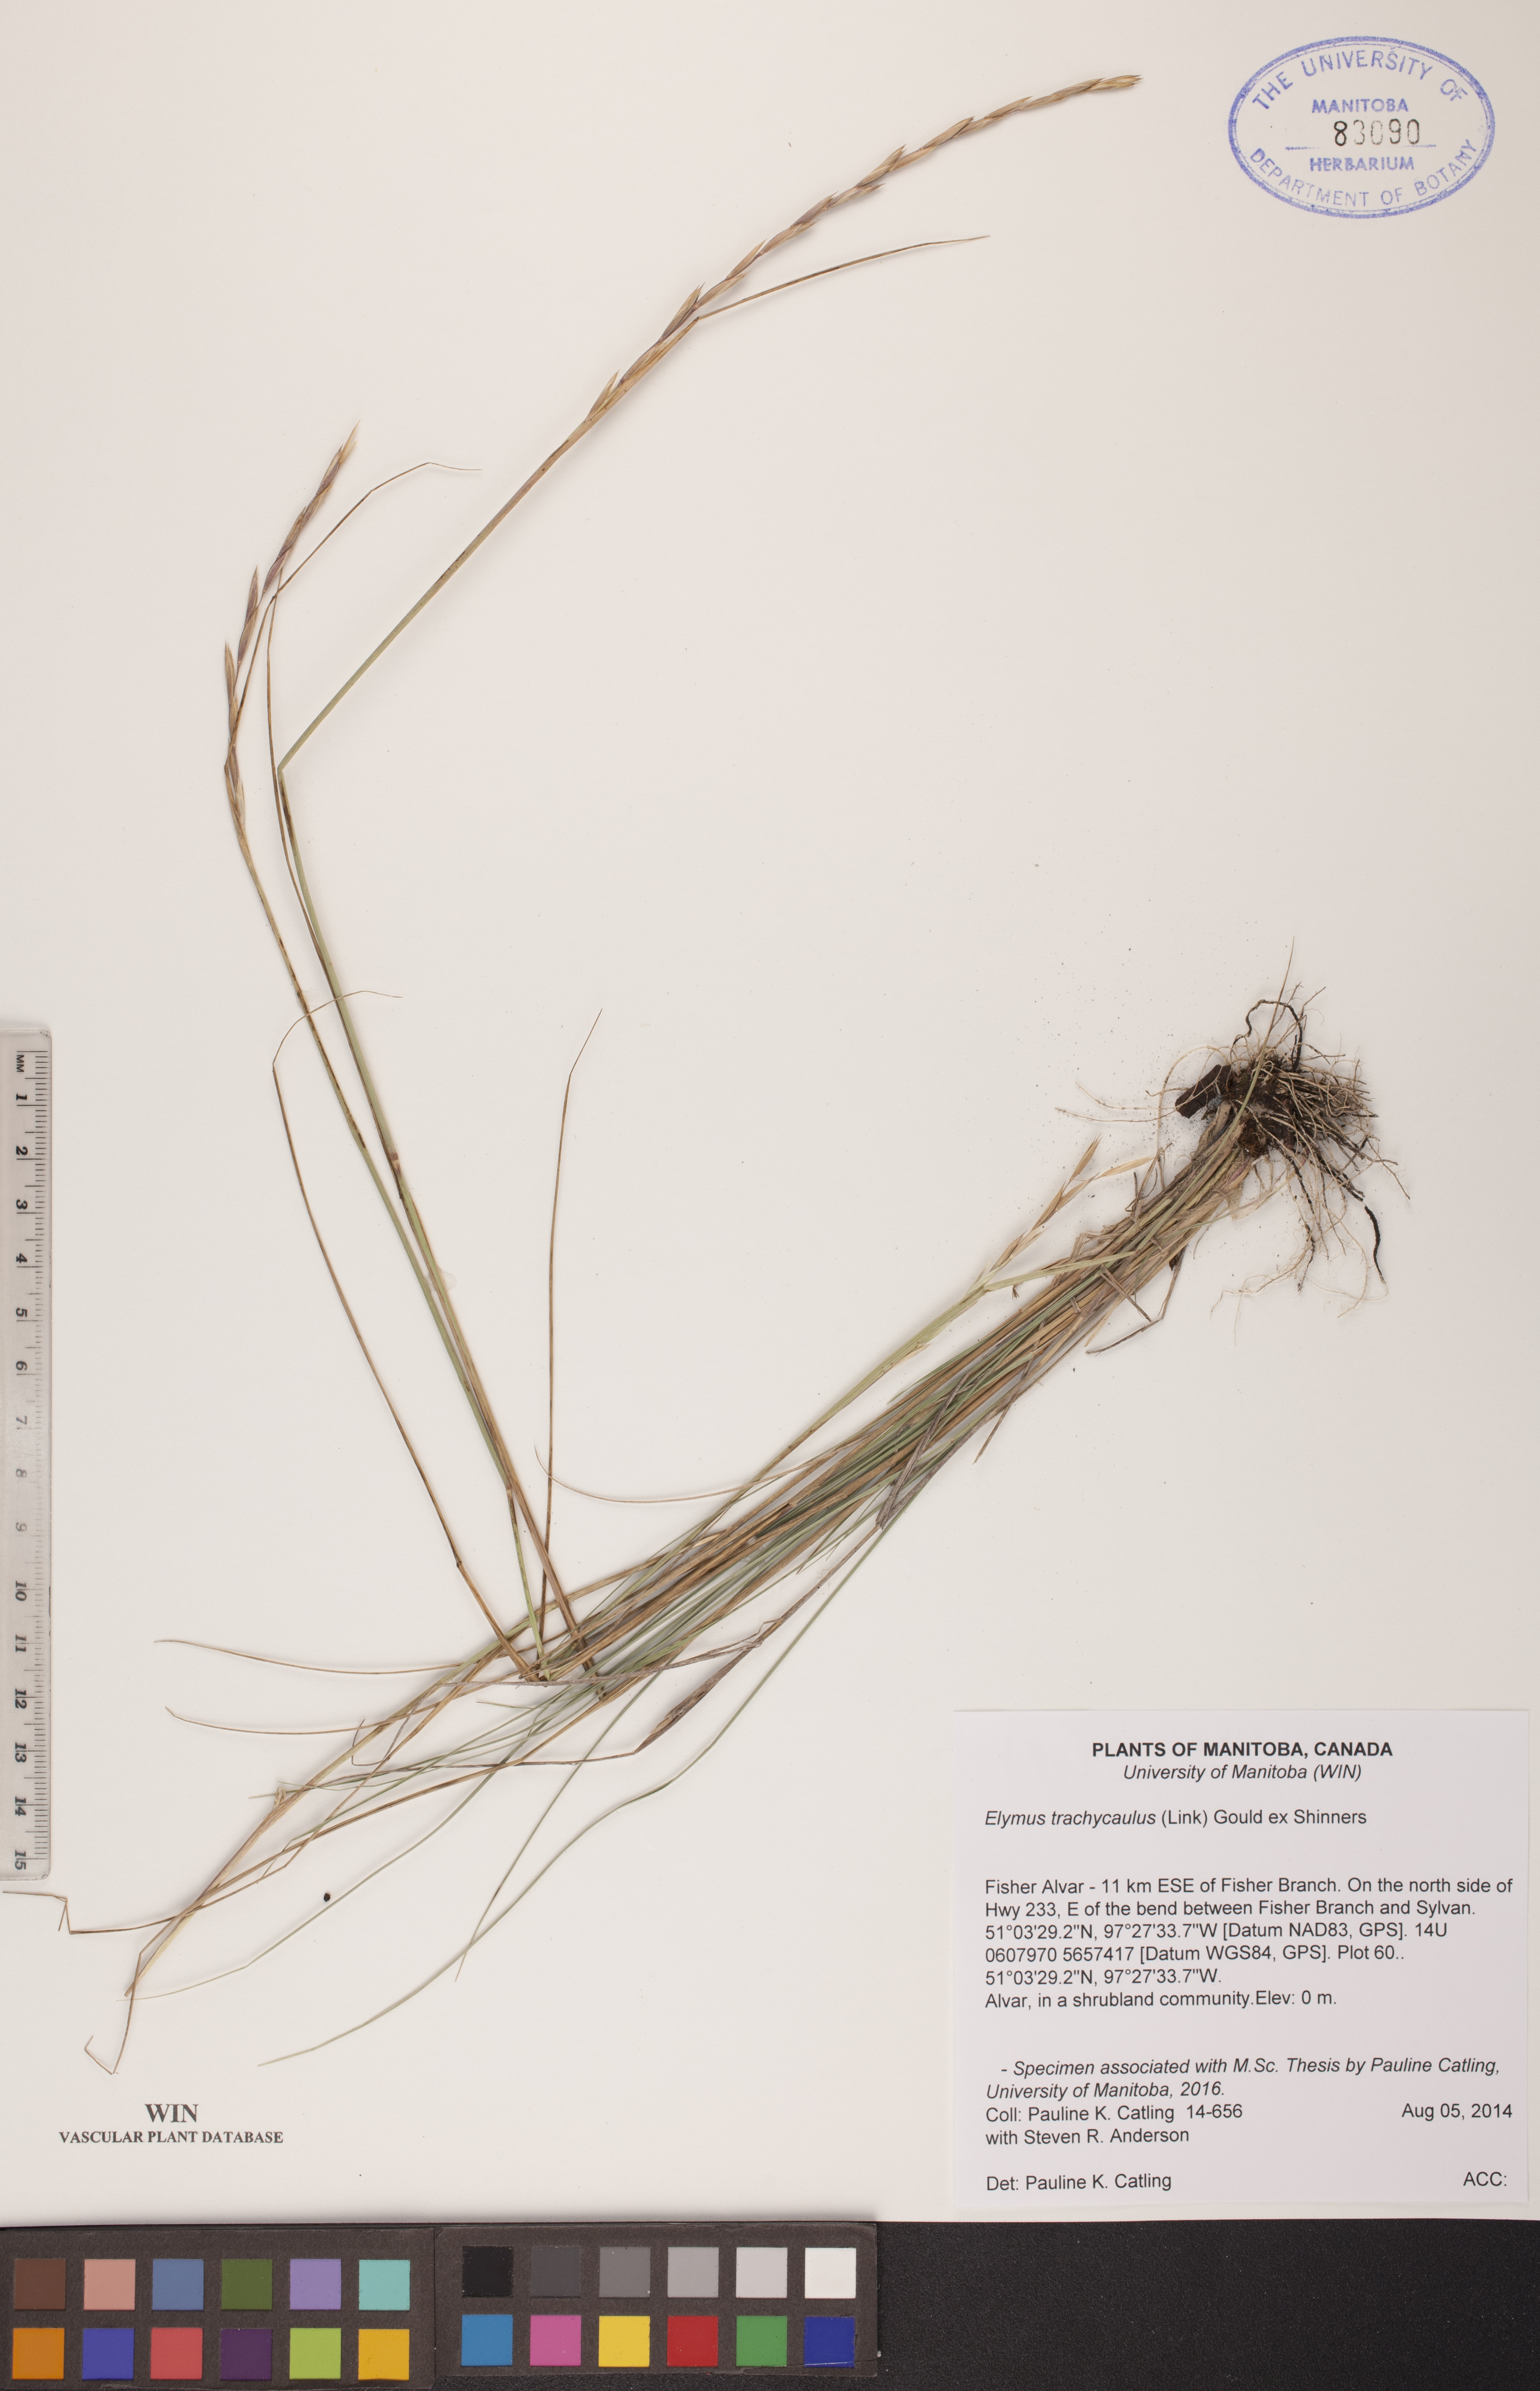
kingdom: Plantae
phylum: Tracheophyta
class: Liliopsida
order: Poales
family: Poaceae
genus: Elymus
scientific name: Elymus violaceus
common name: Arctic wheatgrass
